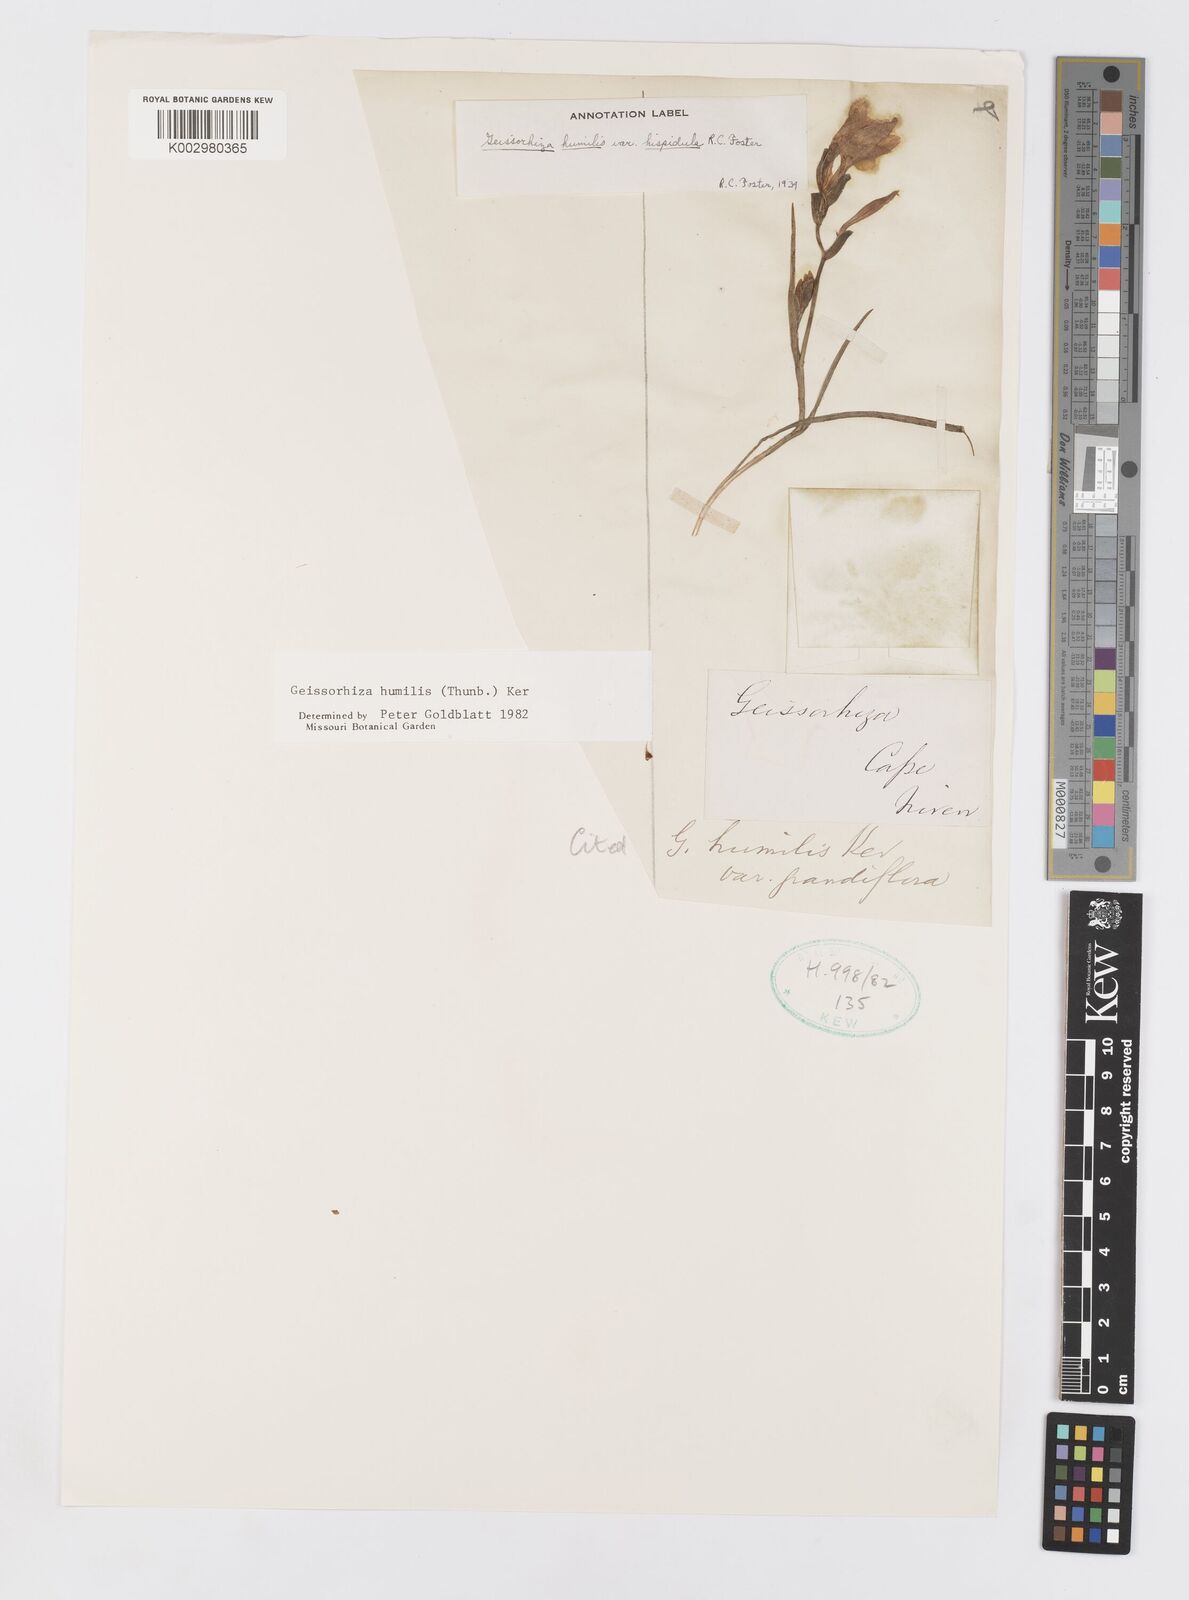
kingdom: Plantae
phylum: Tracheophyta
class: Liliopsida
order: Asparagales
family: Iridaceae
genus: Geissorhiza
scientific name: Geissorhiza humilis
